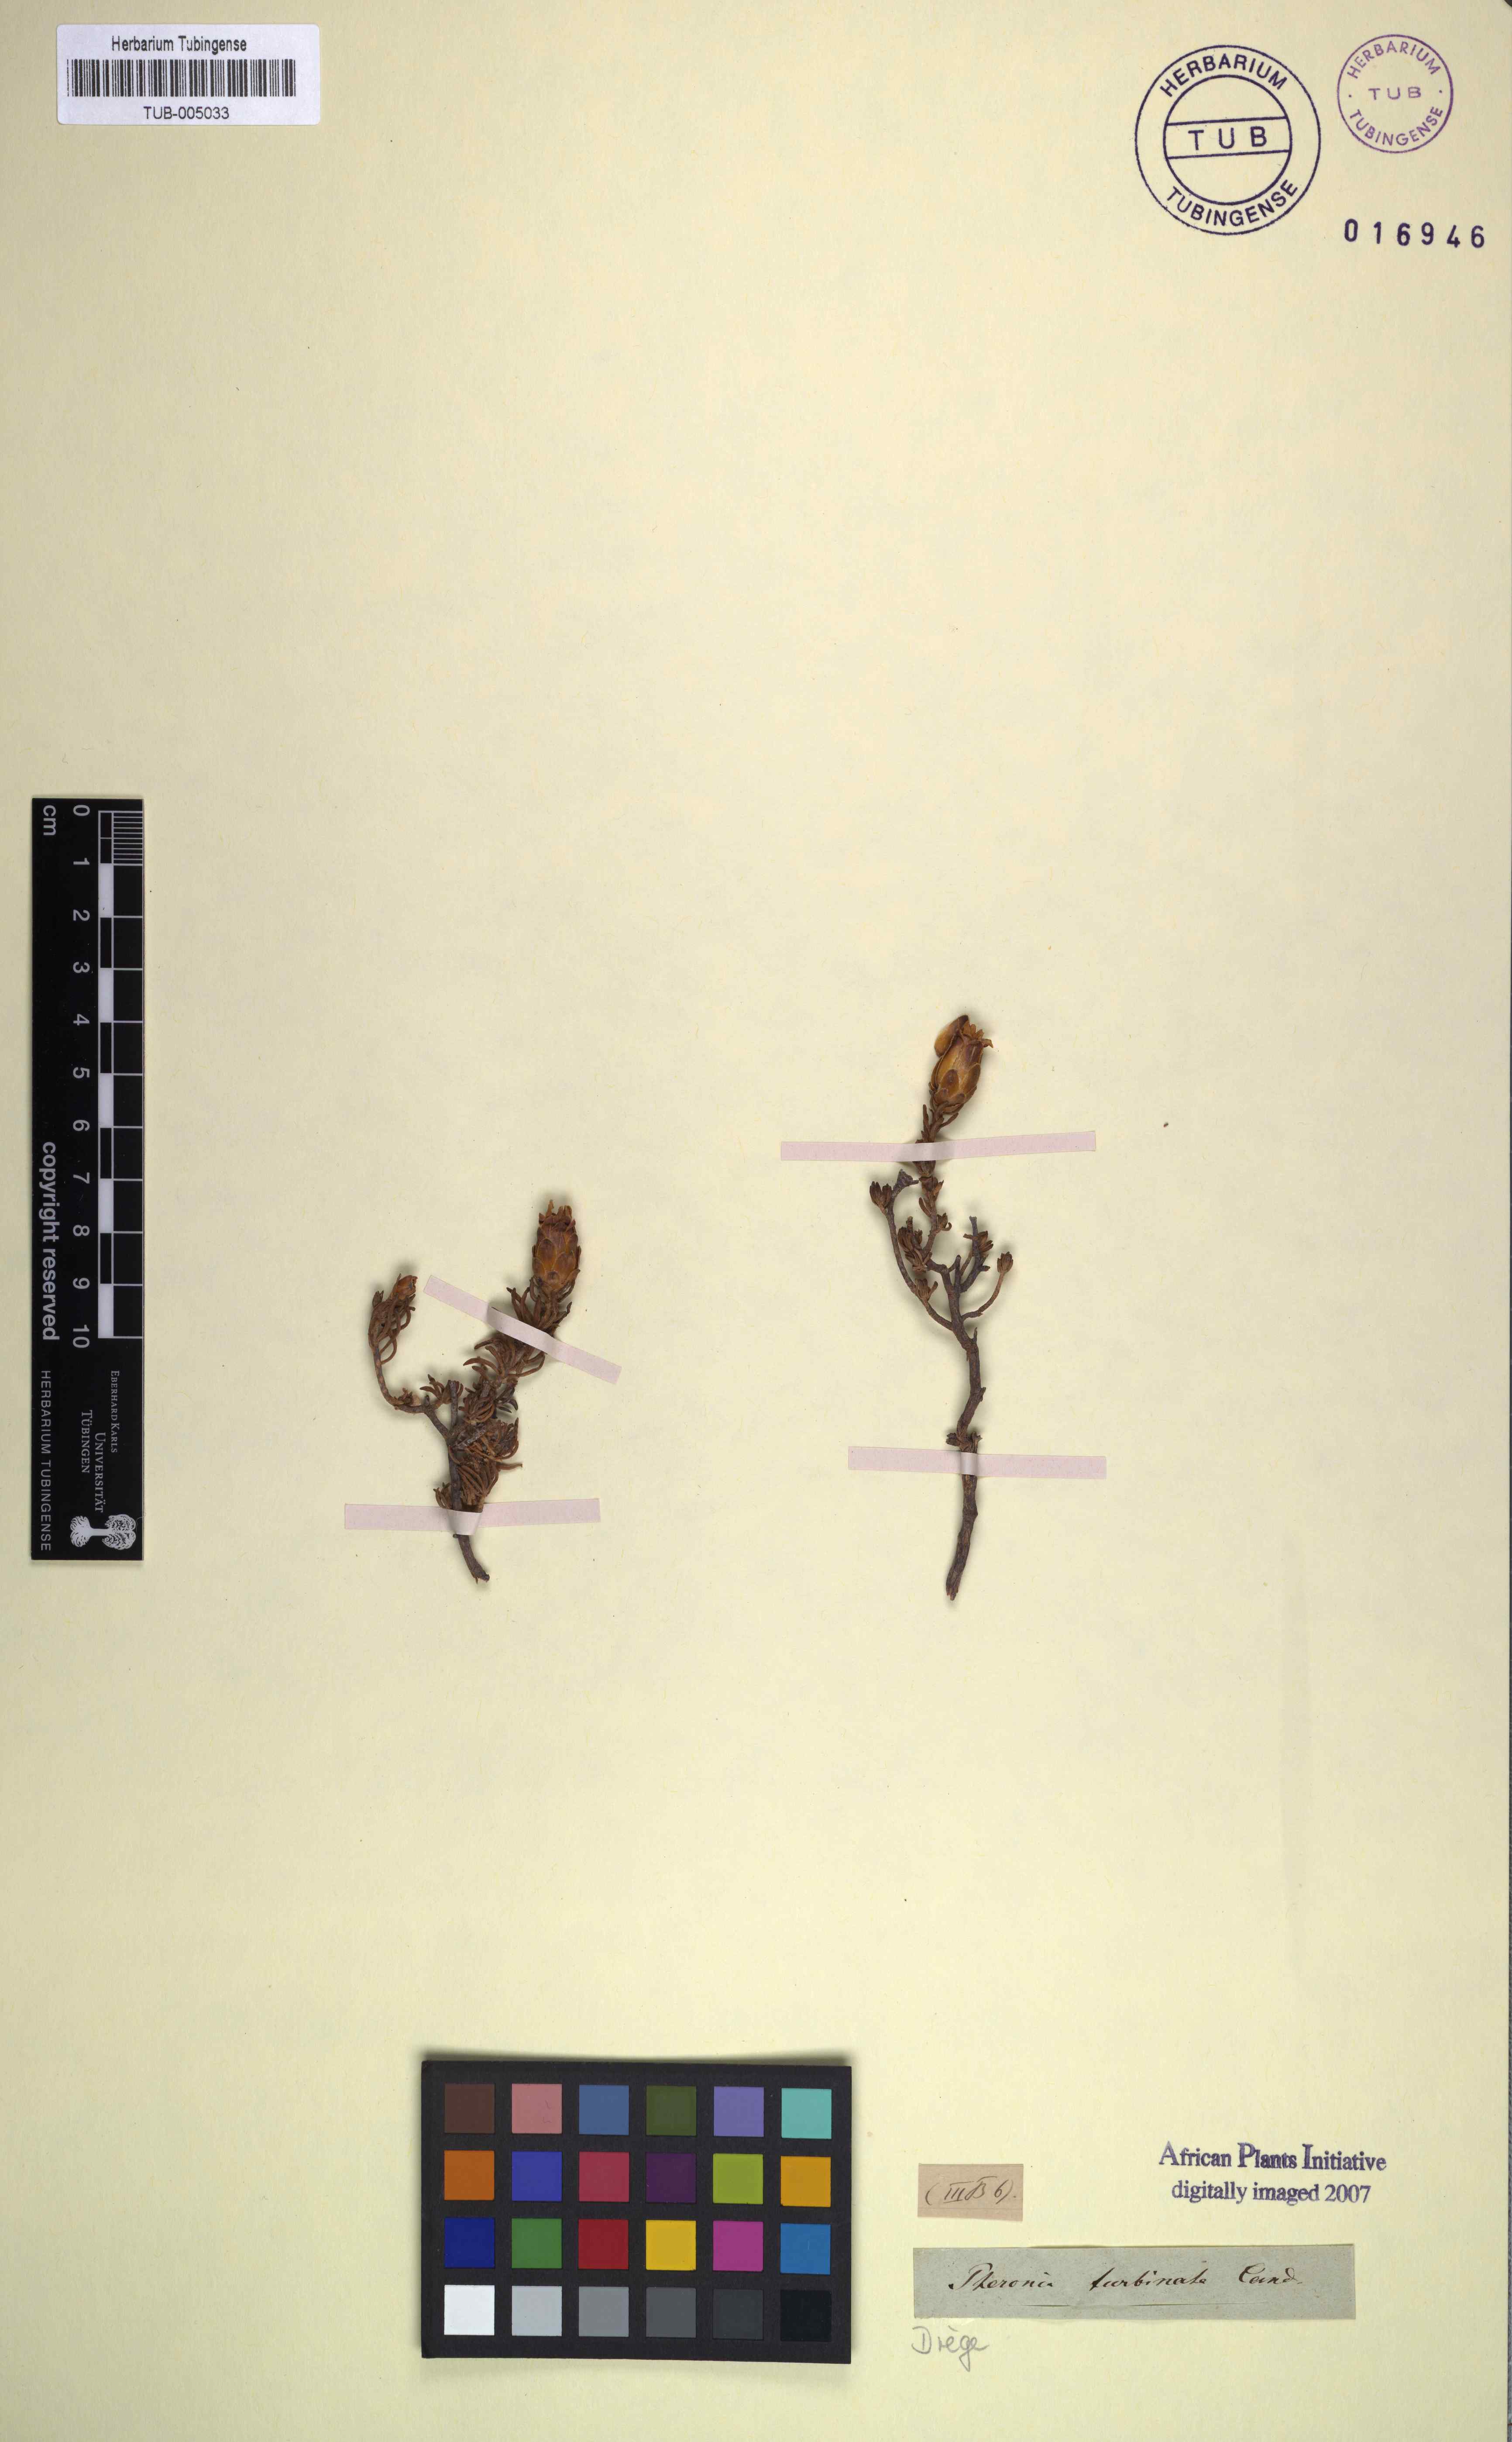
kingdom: Plantae
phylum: Tracheophyta
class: Magnoliopsida
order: Asterales
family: Asteraceae
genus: Pteronia
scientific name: Pteronia ciliata
